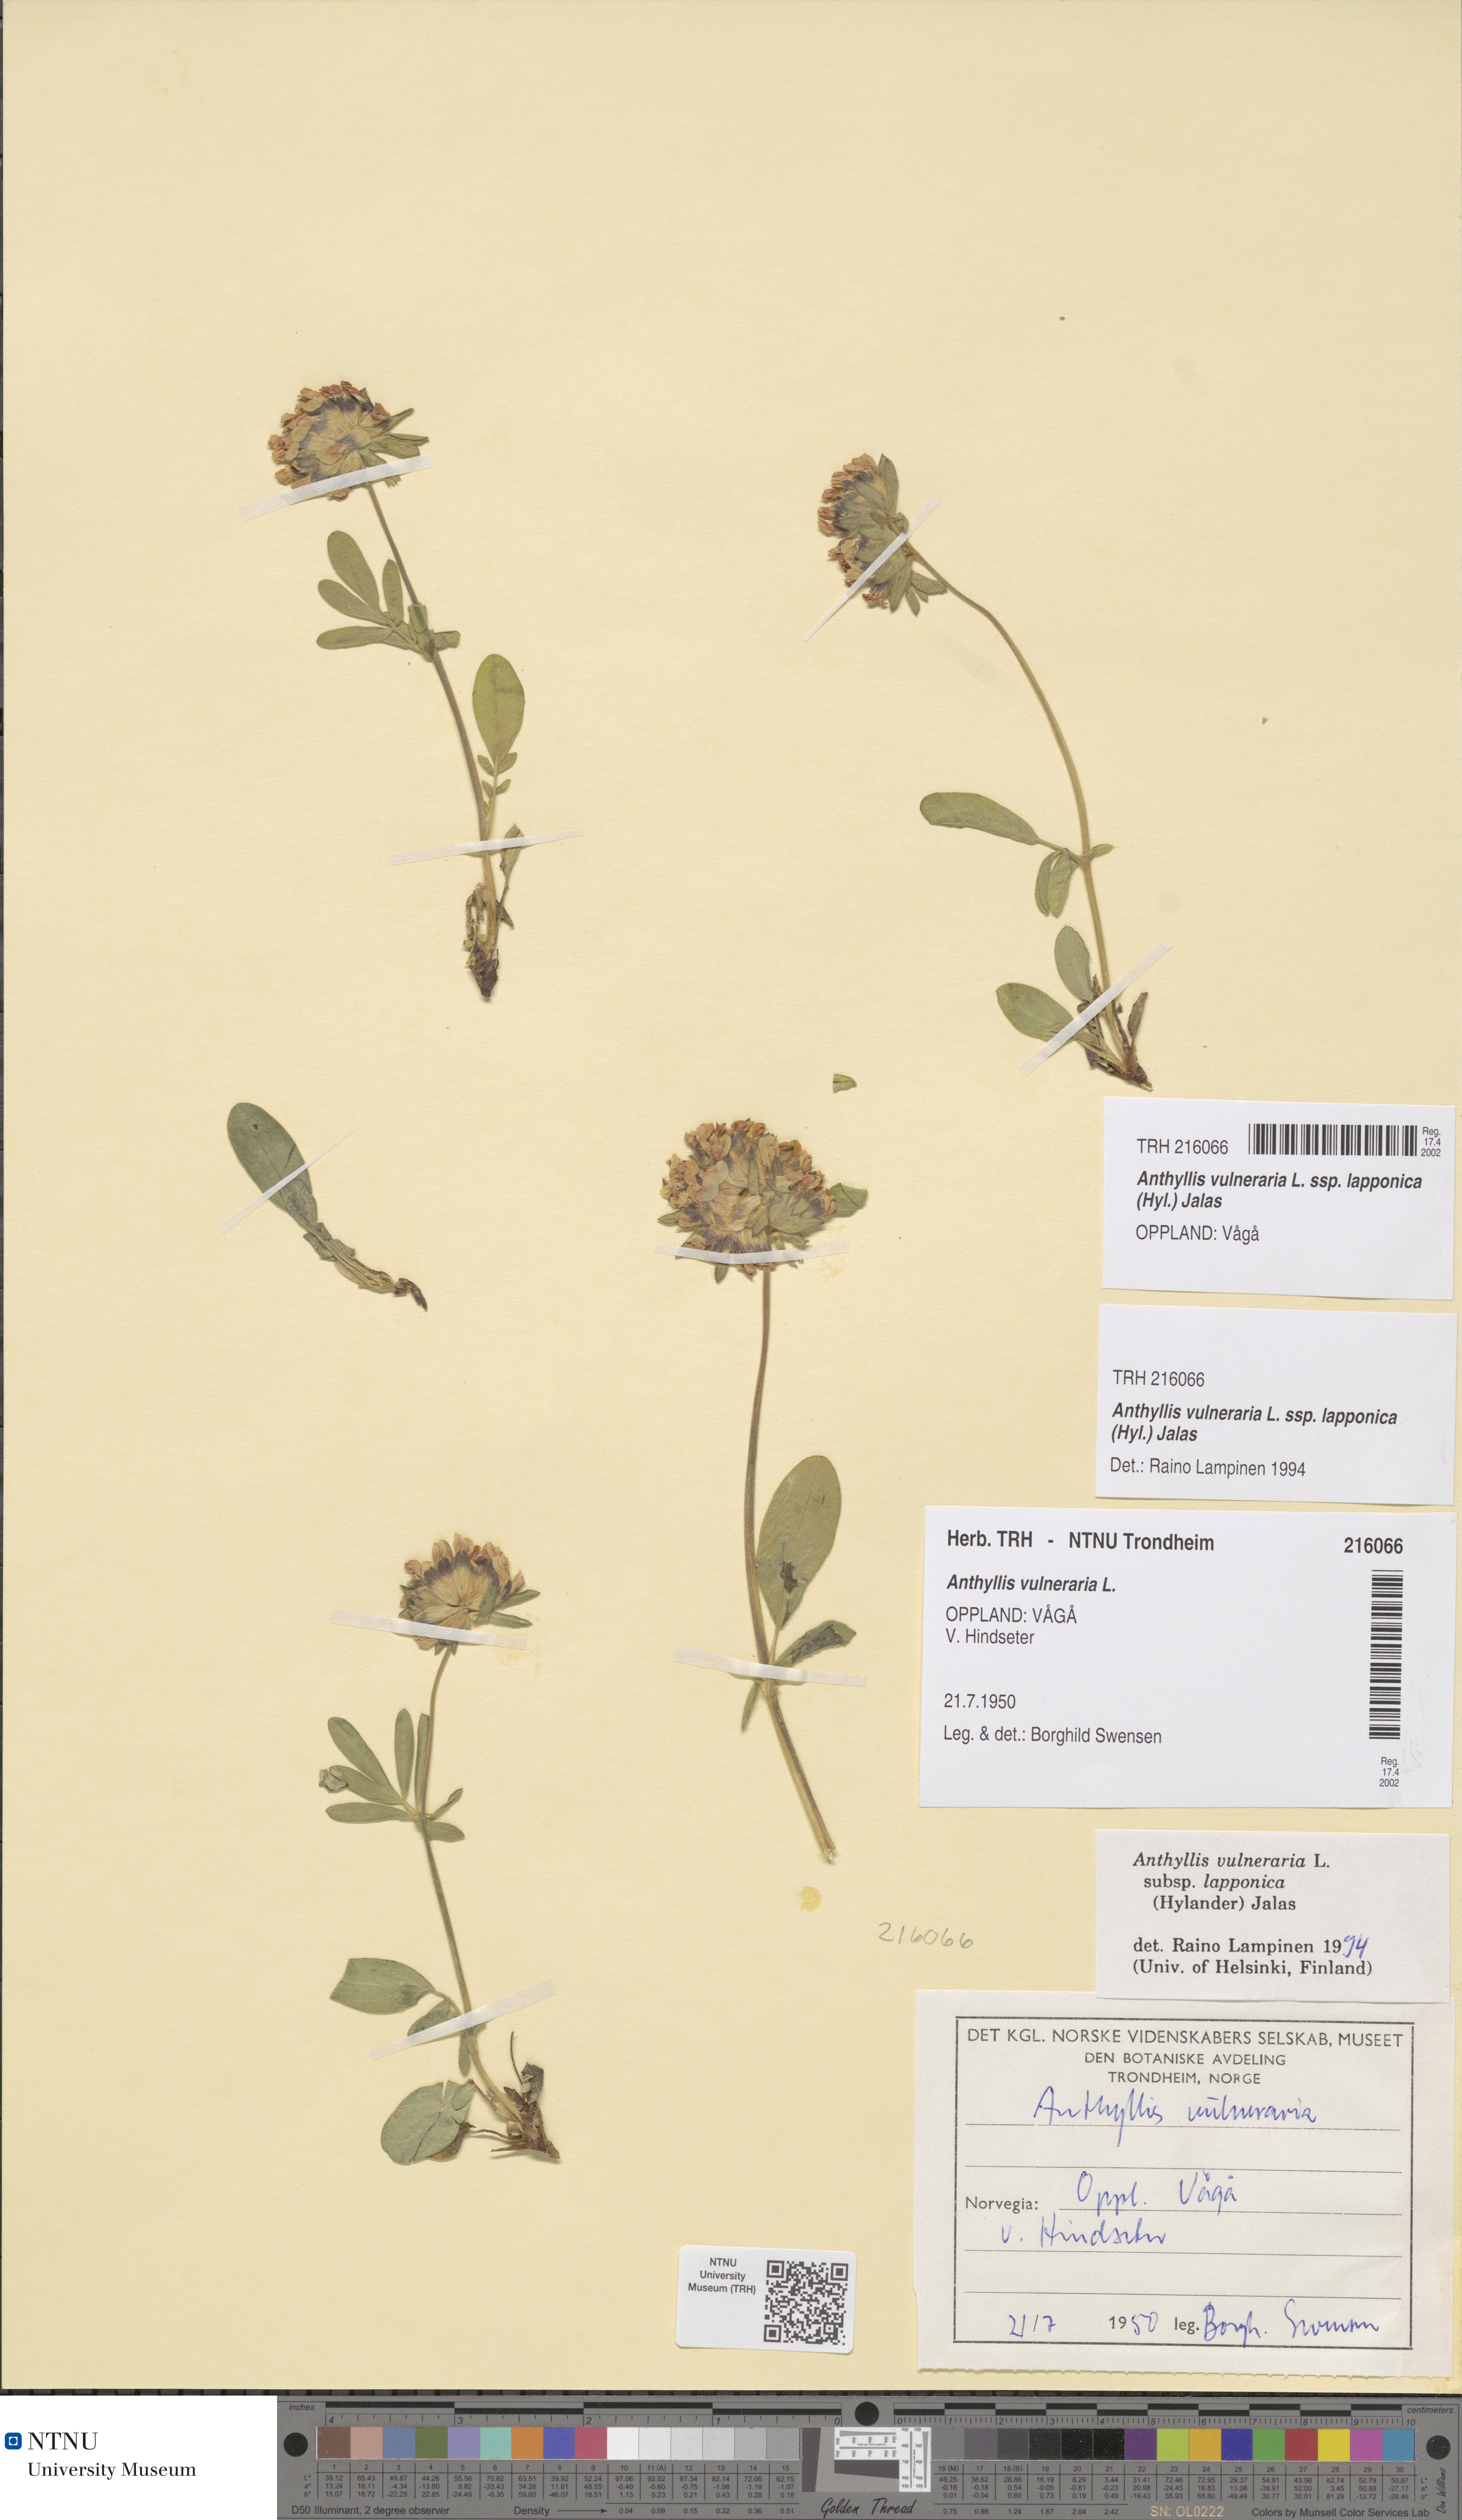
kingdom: Plantae
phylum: Tracheophyta
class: Magnoliopsida
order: Fabales
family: Fabaceae
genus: Anthyllis
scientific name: Anthyllis vulneraria
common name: Kidney vetch
